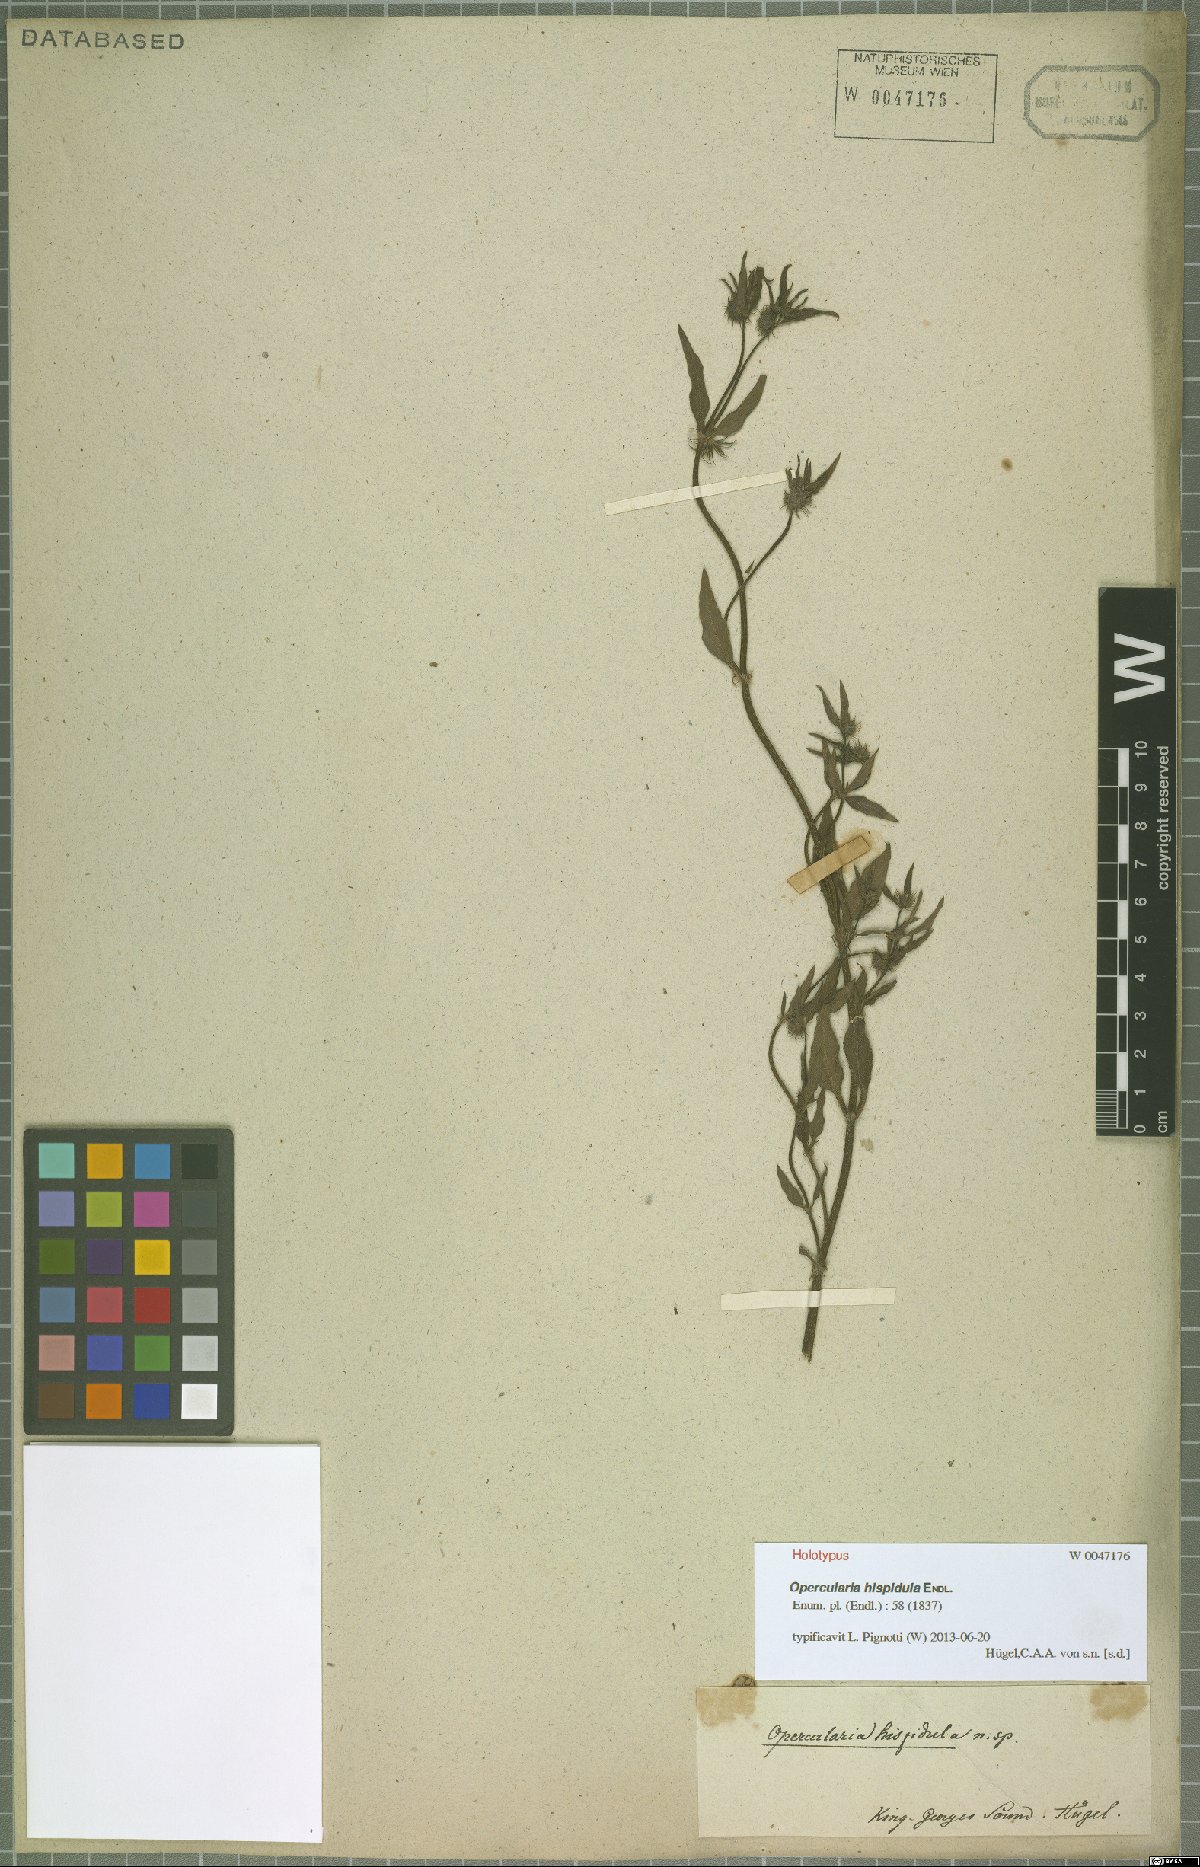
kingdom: Plantae
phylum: Tracheophyta
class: Magnoliopsida
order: Gentianales
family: Rubiaceae
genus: Opercularia
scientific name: Opercularia hispidula
